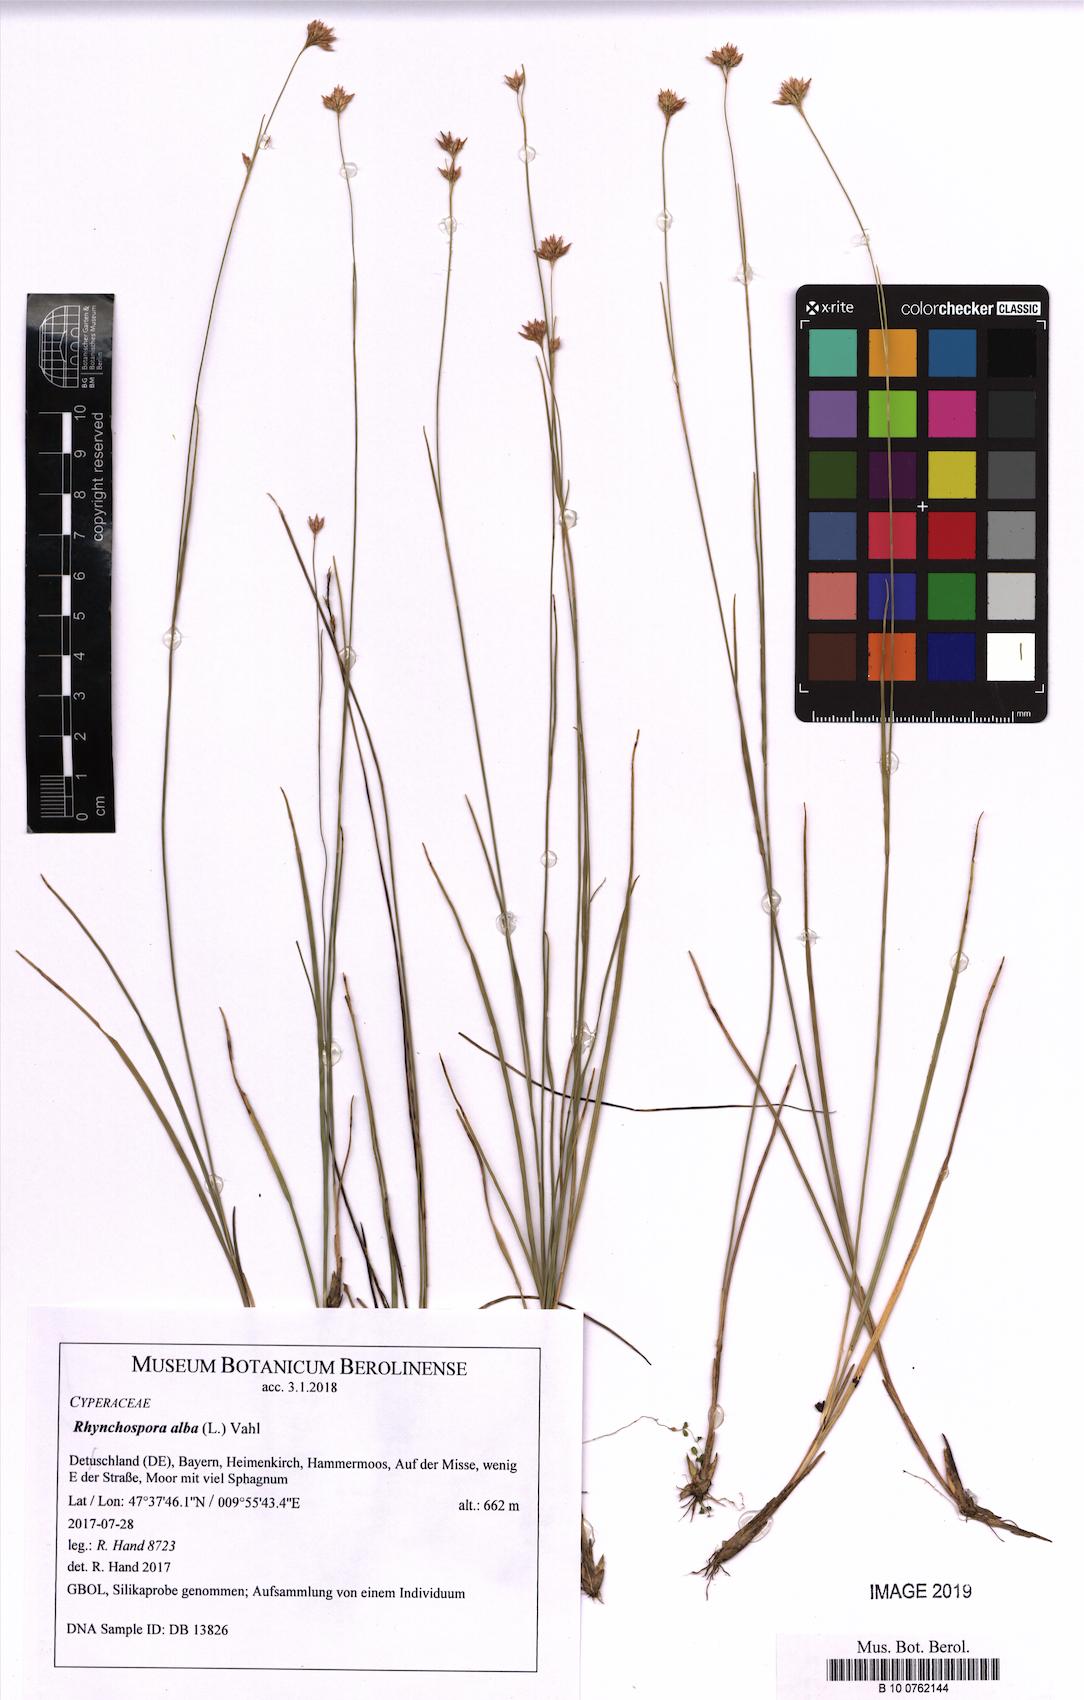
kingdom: Plantae
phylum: Tracheophyta
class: Liliopsida
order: Poales
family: Cyperaceae
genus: Rhynchospora
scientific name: Rhynchospora alba
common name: White beak-sedge
